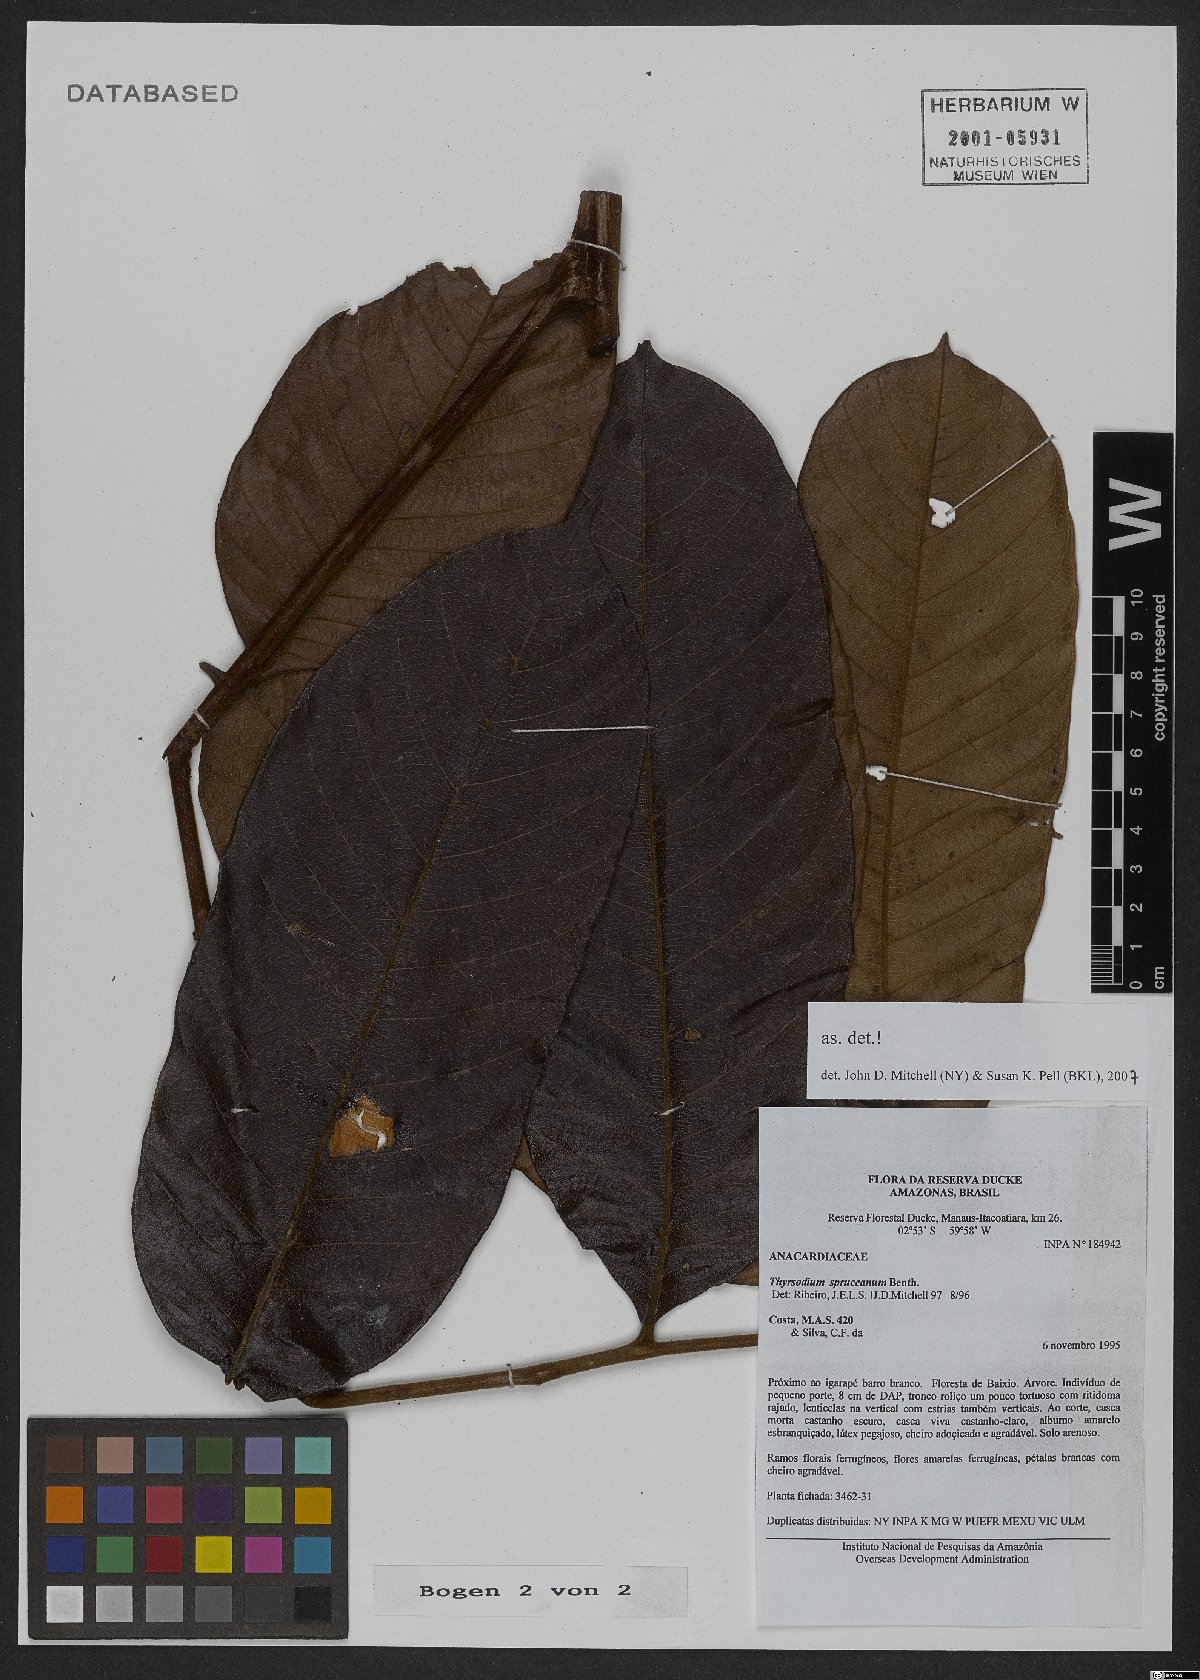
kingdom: Plantae
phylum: Tracheophyta
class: Magnoliopsida
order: Sapindales
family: Anacardiaceae
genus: Thyrsodium
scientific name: Thyrsodium spruceanum
